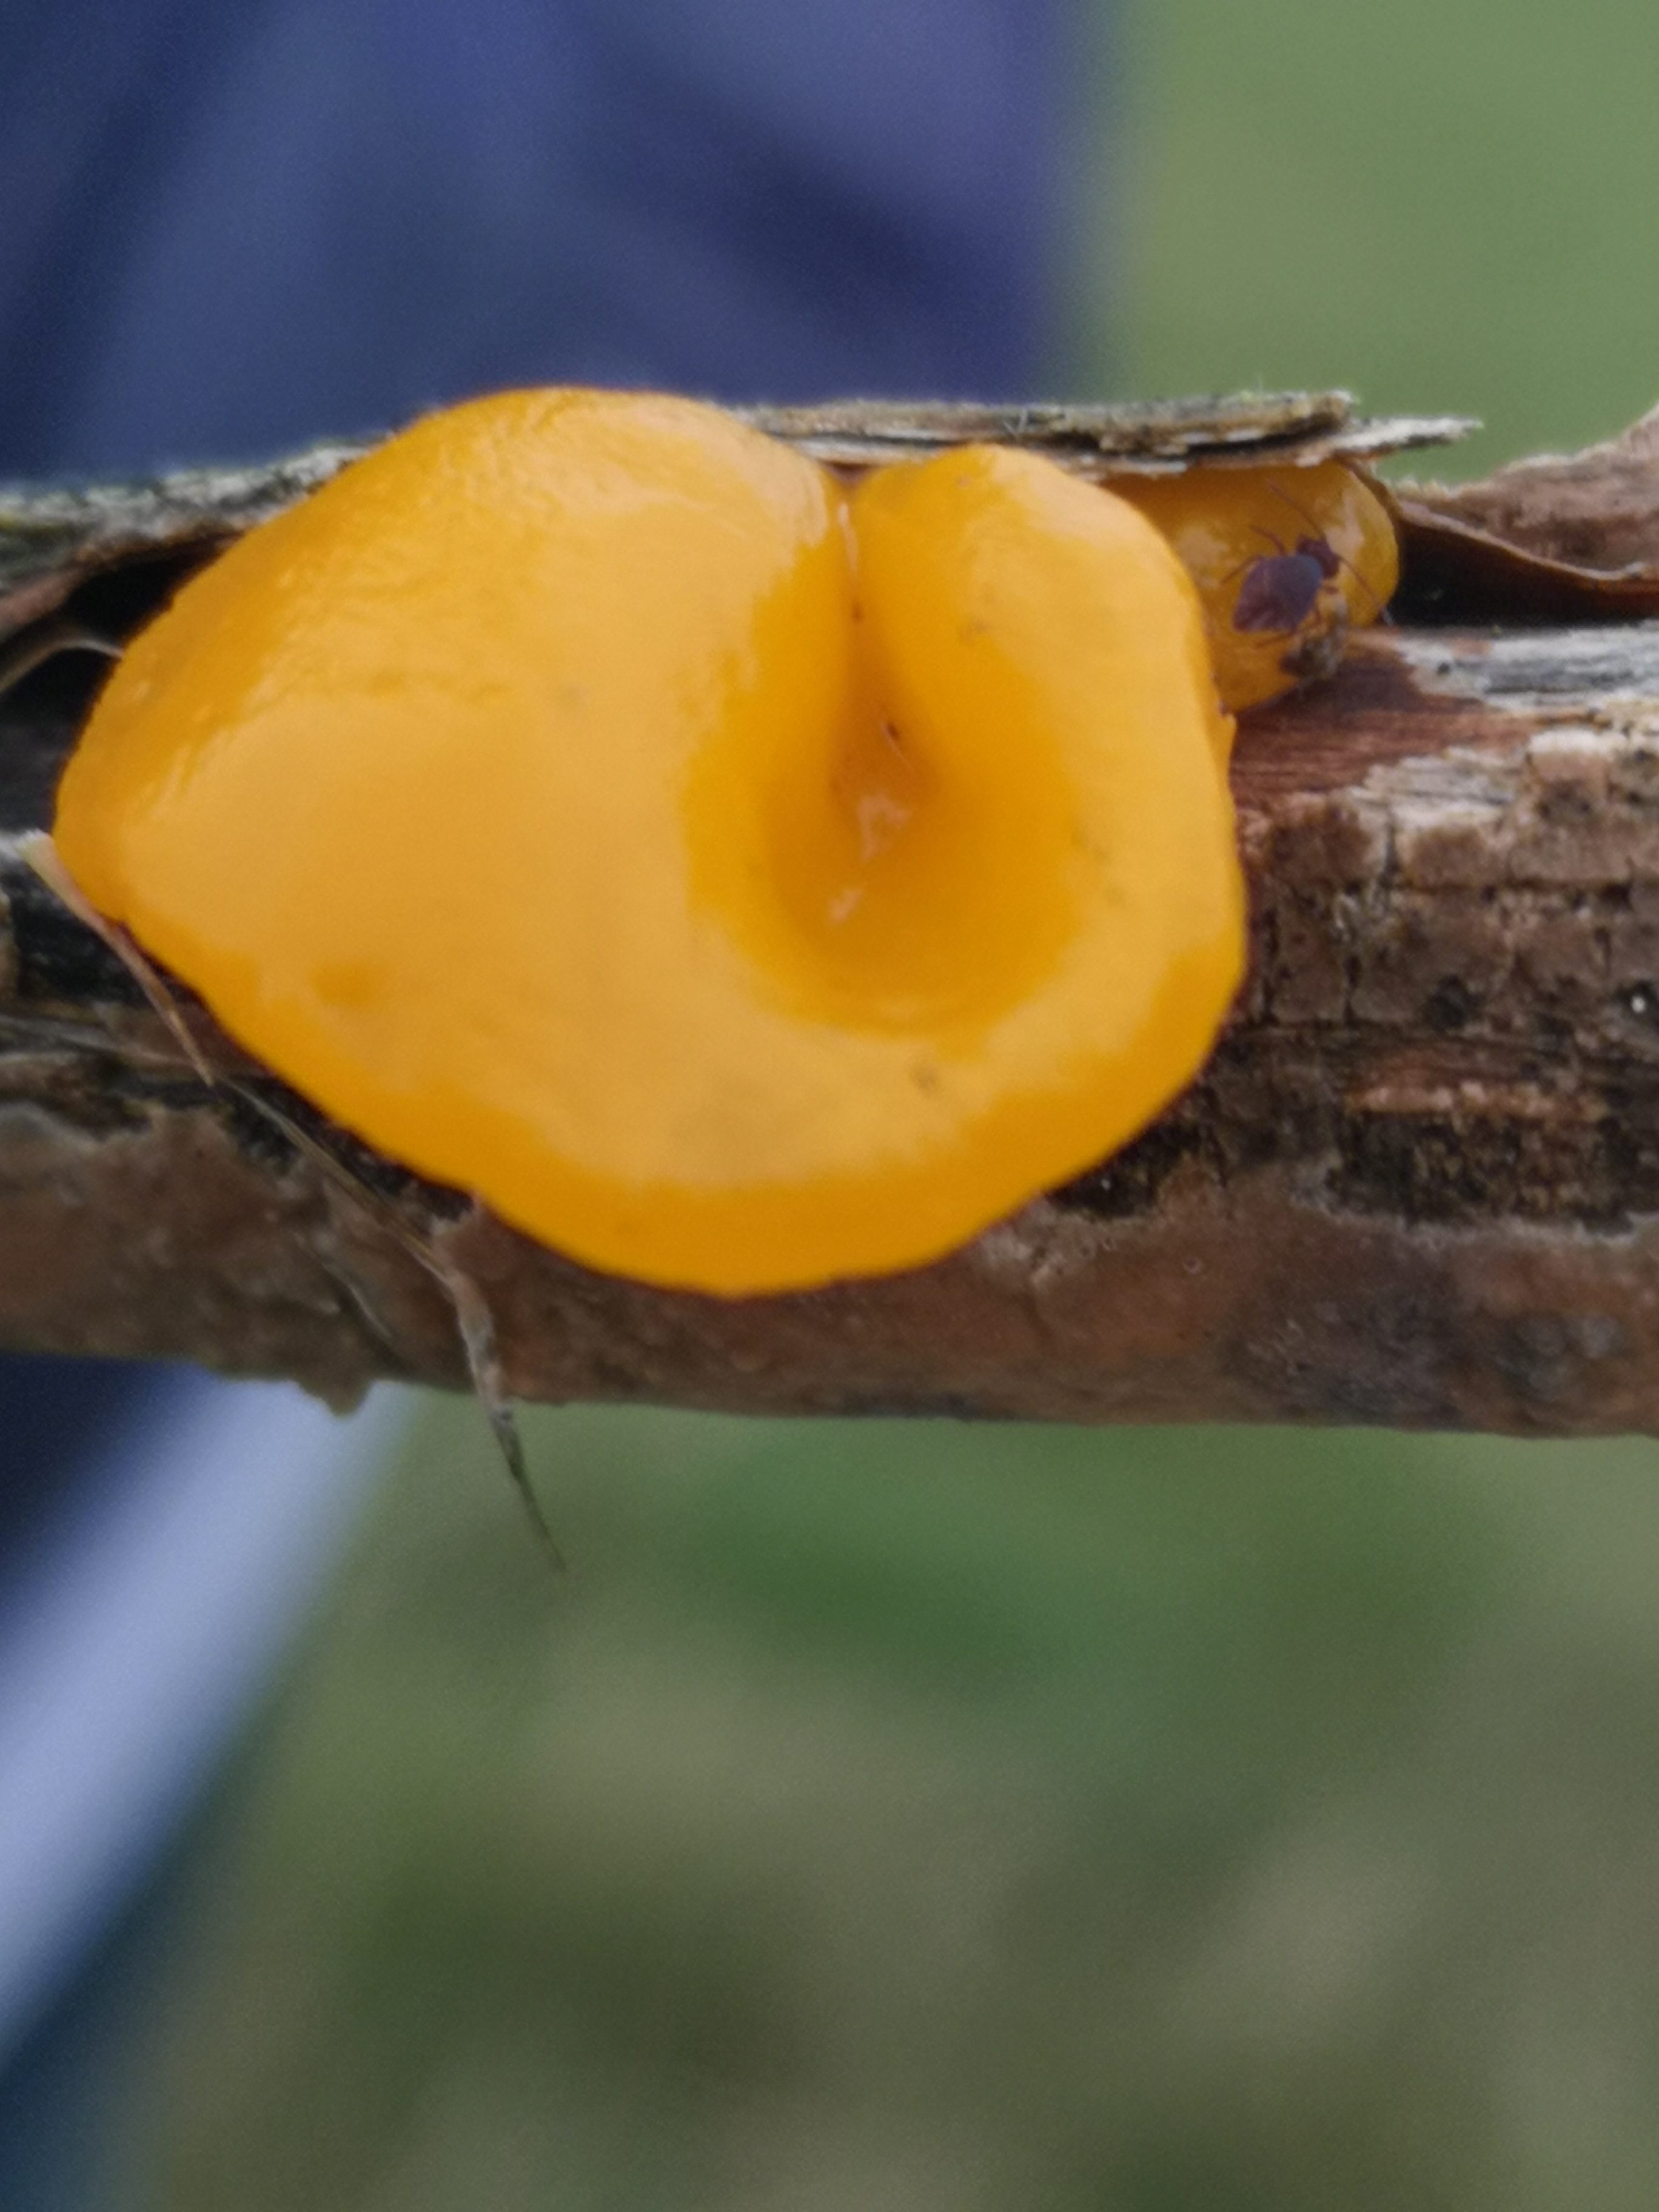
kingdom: Fungi
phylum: Basidiomycota
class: Tremellomycetes
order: Tremellales
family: Tremellaceae
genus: Tremella
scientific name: Tremella mesenterica
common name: gul bævresvamp
